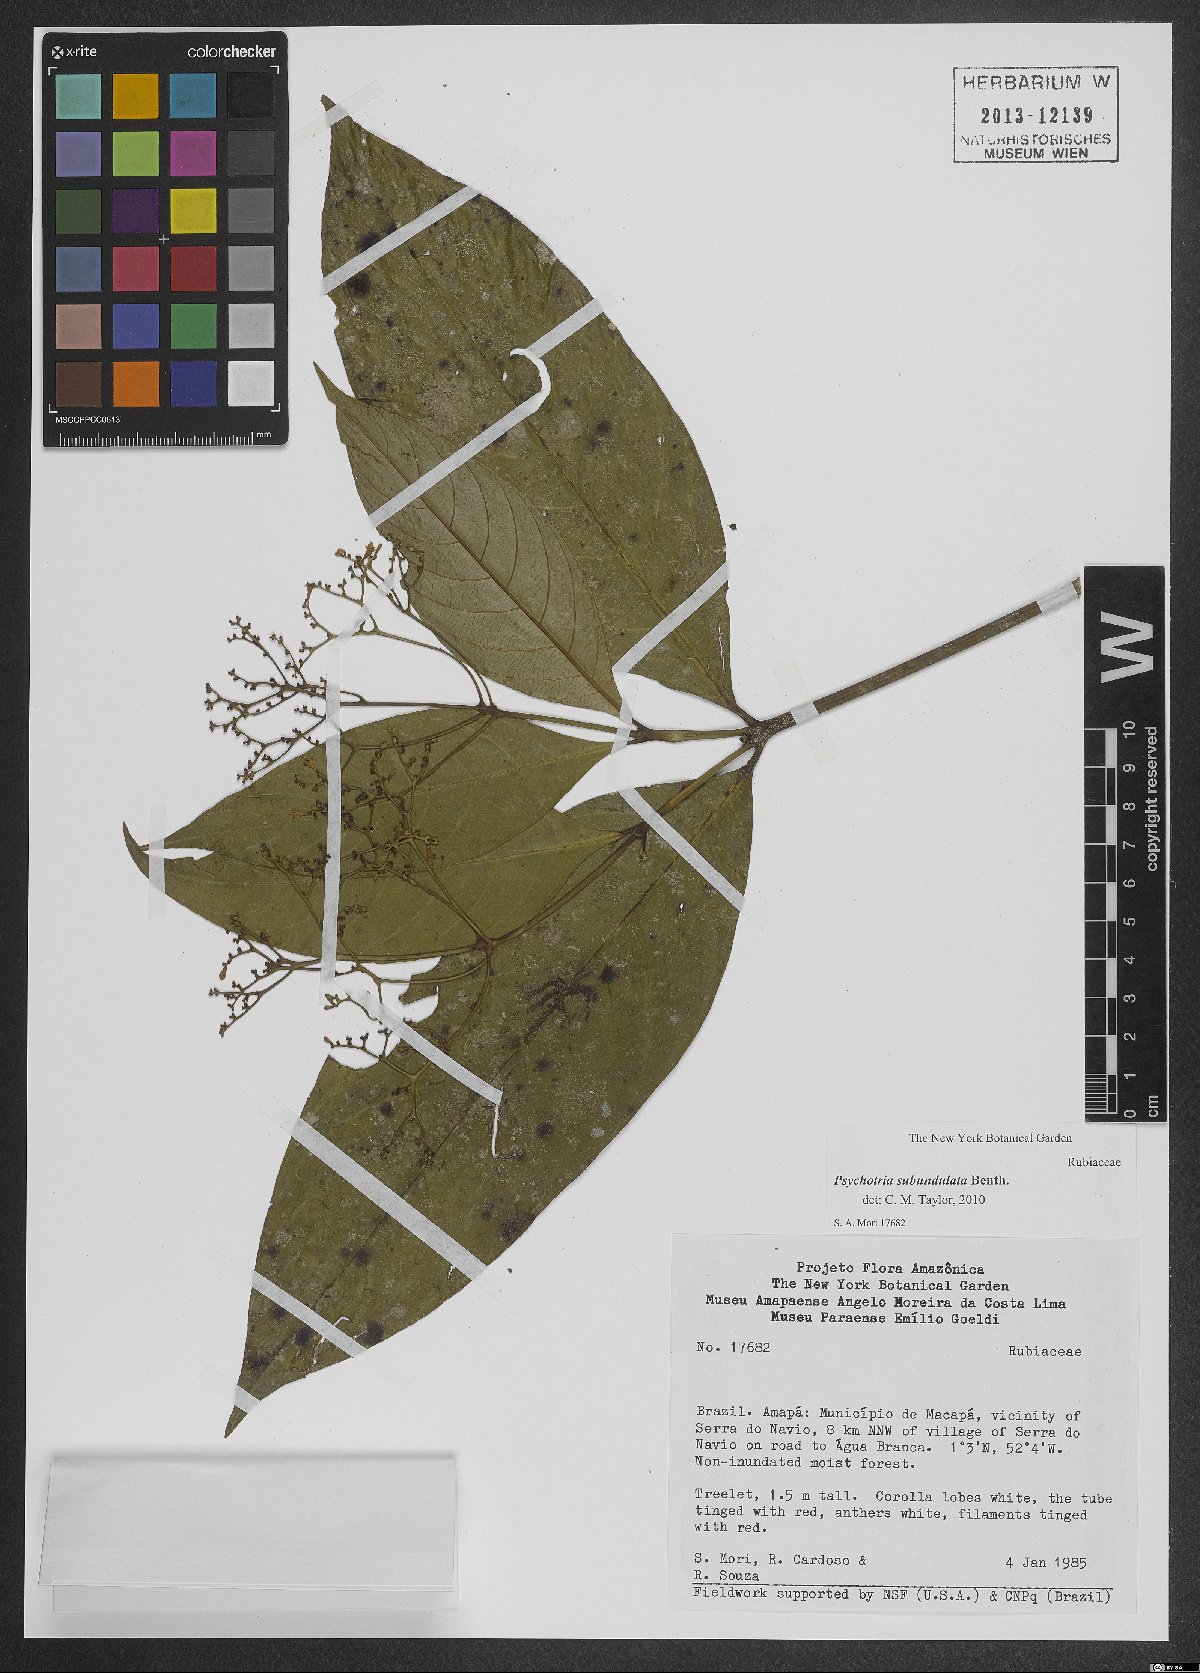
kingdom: Plantae
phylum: Tracheophyta
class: Magnoliopsida
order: Gentianales
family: Rubiaceae
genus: Palicourea
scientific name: Palicourea obliquinervia
